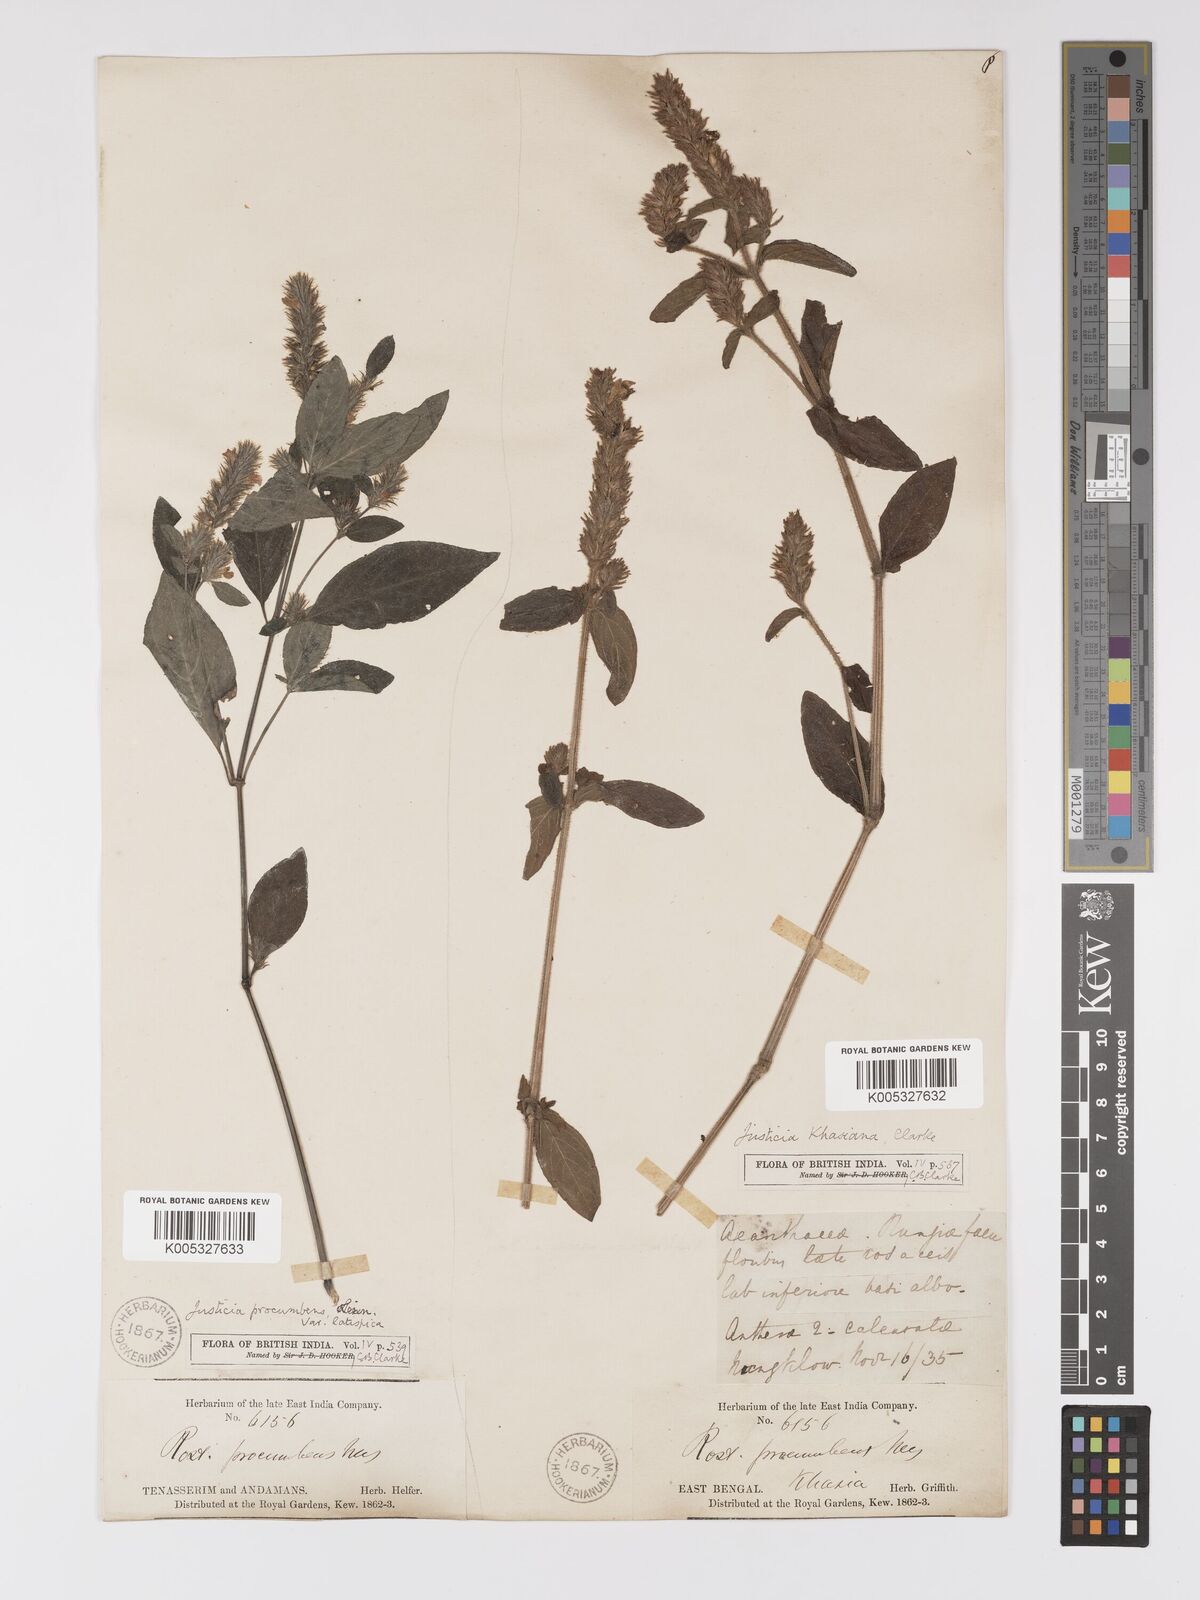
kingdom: Plantae
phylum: Tracheophyta
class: Magnoliopsida
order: Lamiales
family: Acanthaceae
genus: Rostellularia
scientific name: Rostellularia latispica
